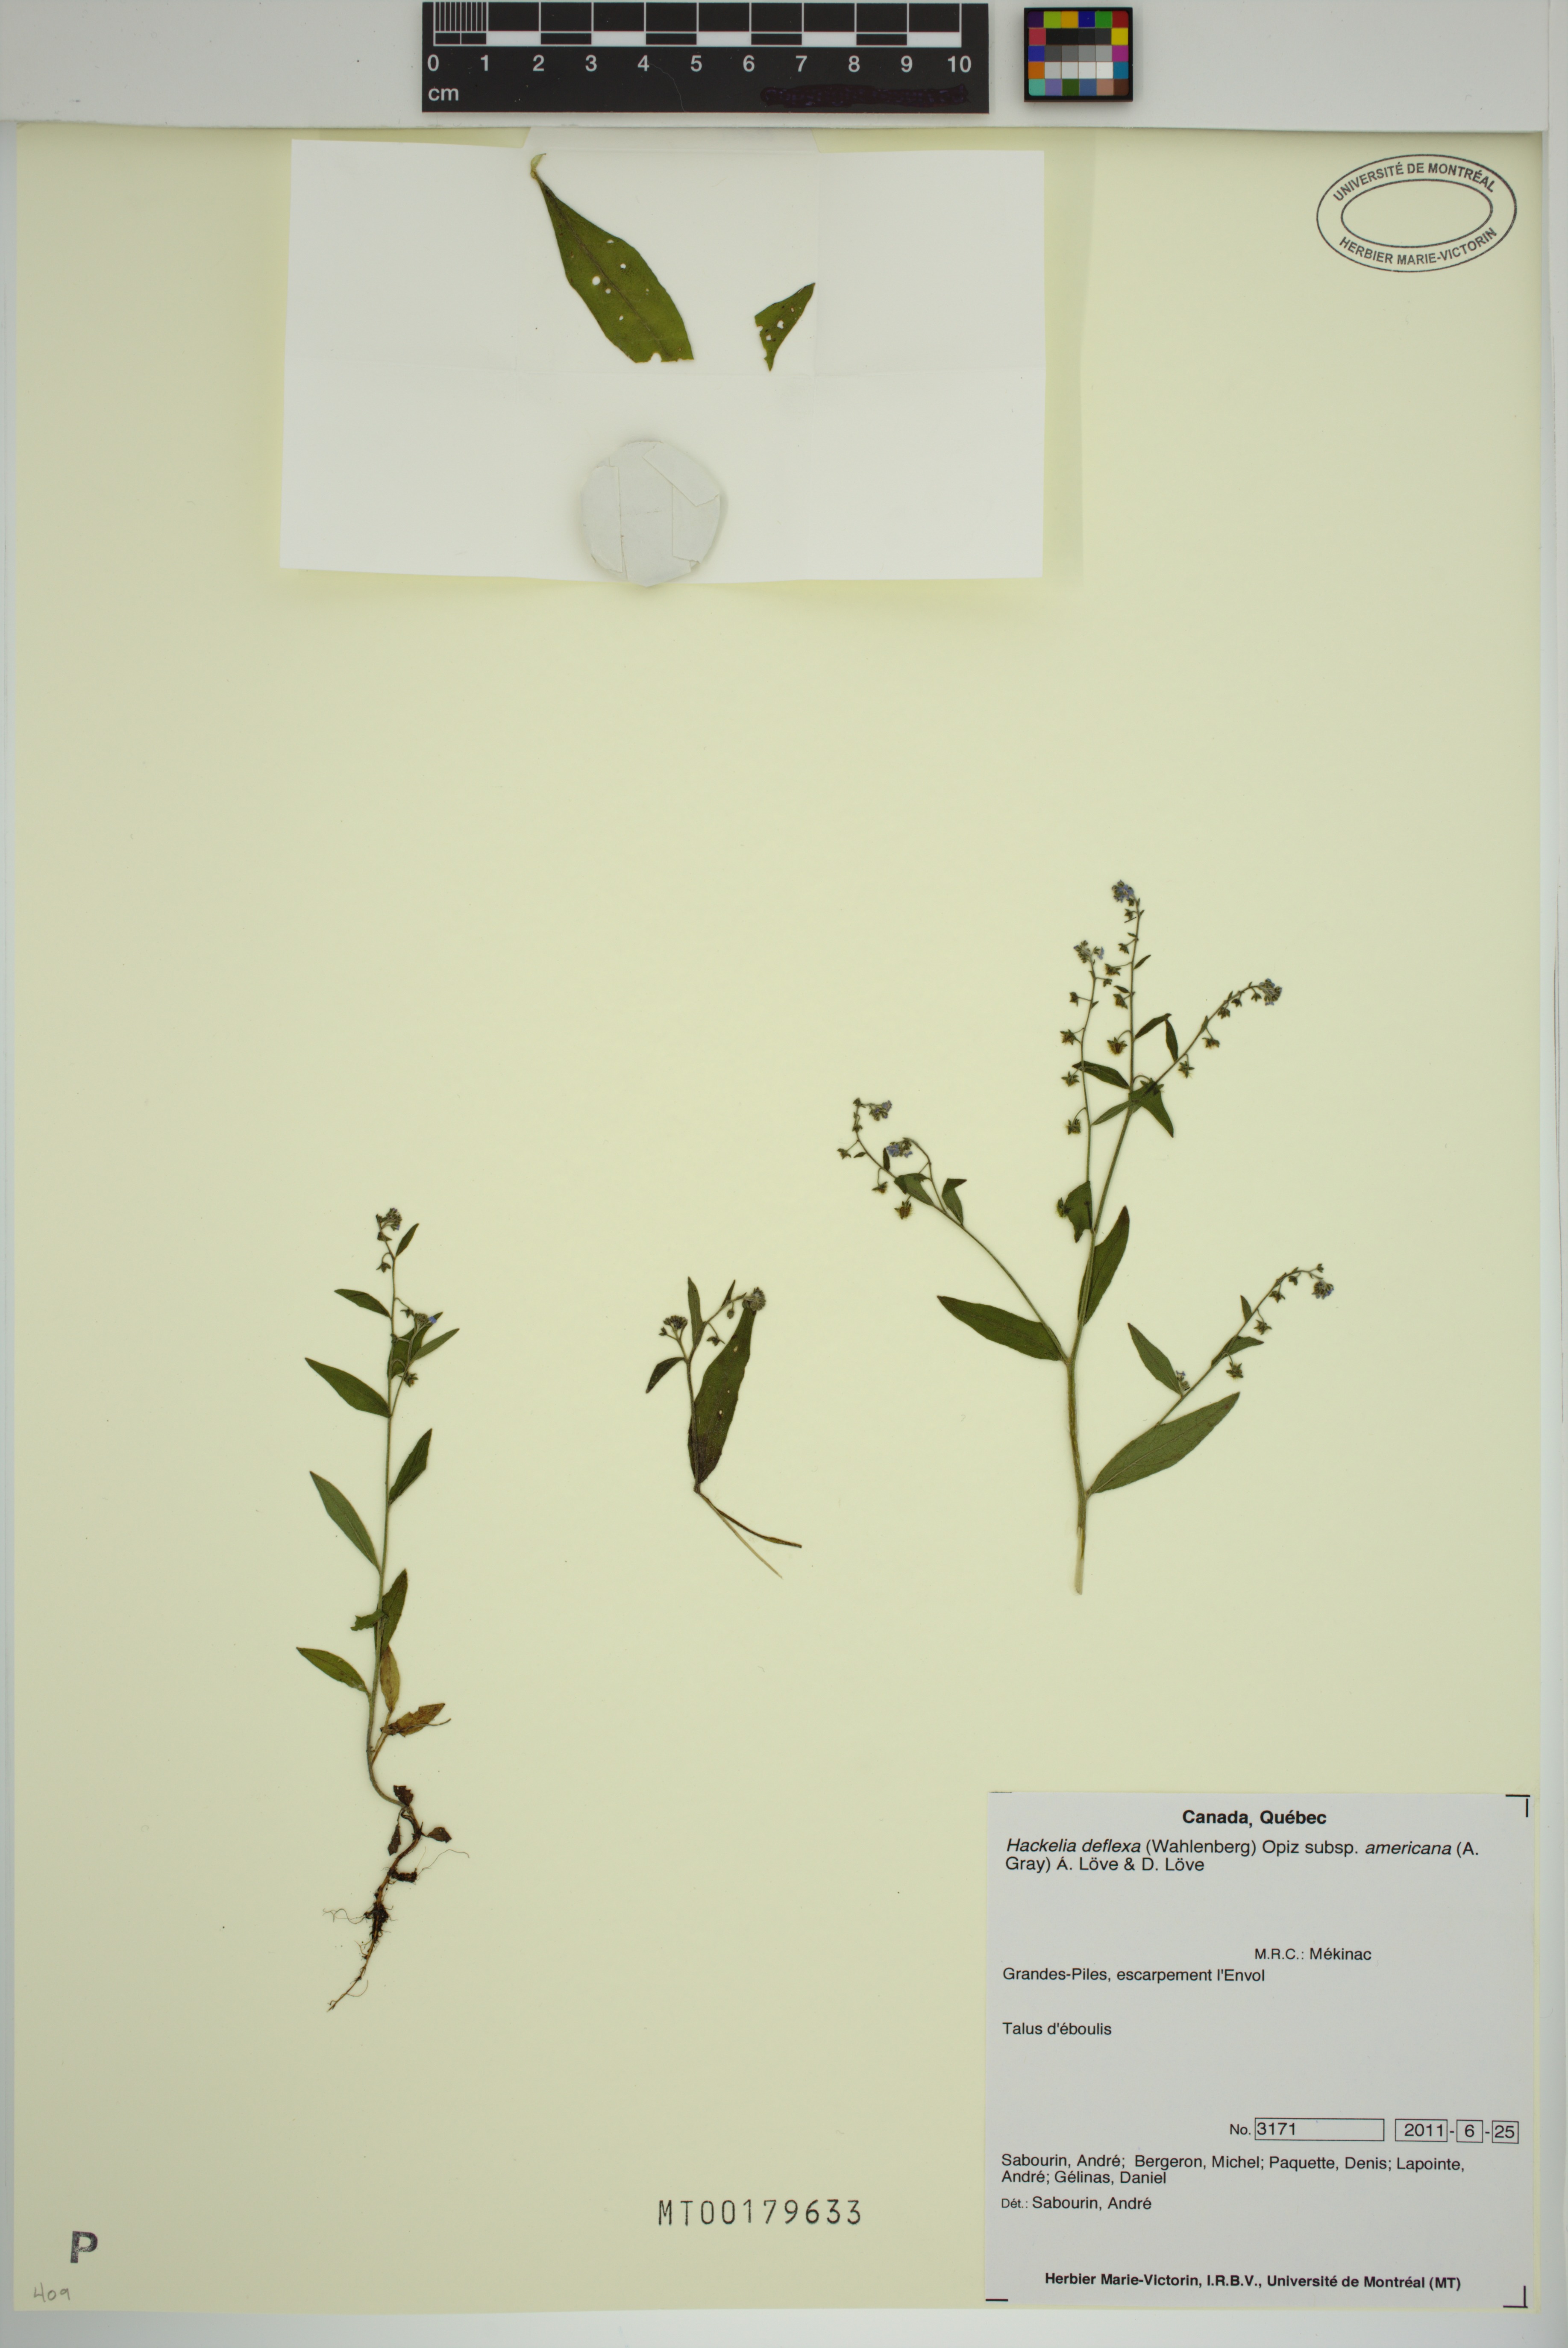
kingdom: Plantae
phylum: Tracheophyta
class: Magnoliopsida
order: Boraginales
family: Boraginaceae
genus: Hackelia
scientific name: Hackelia deflexa
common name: Nodding stickseed
